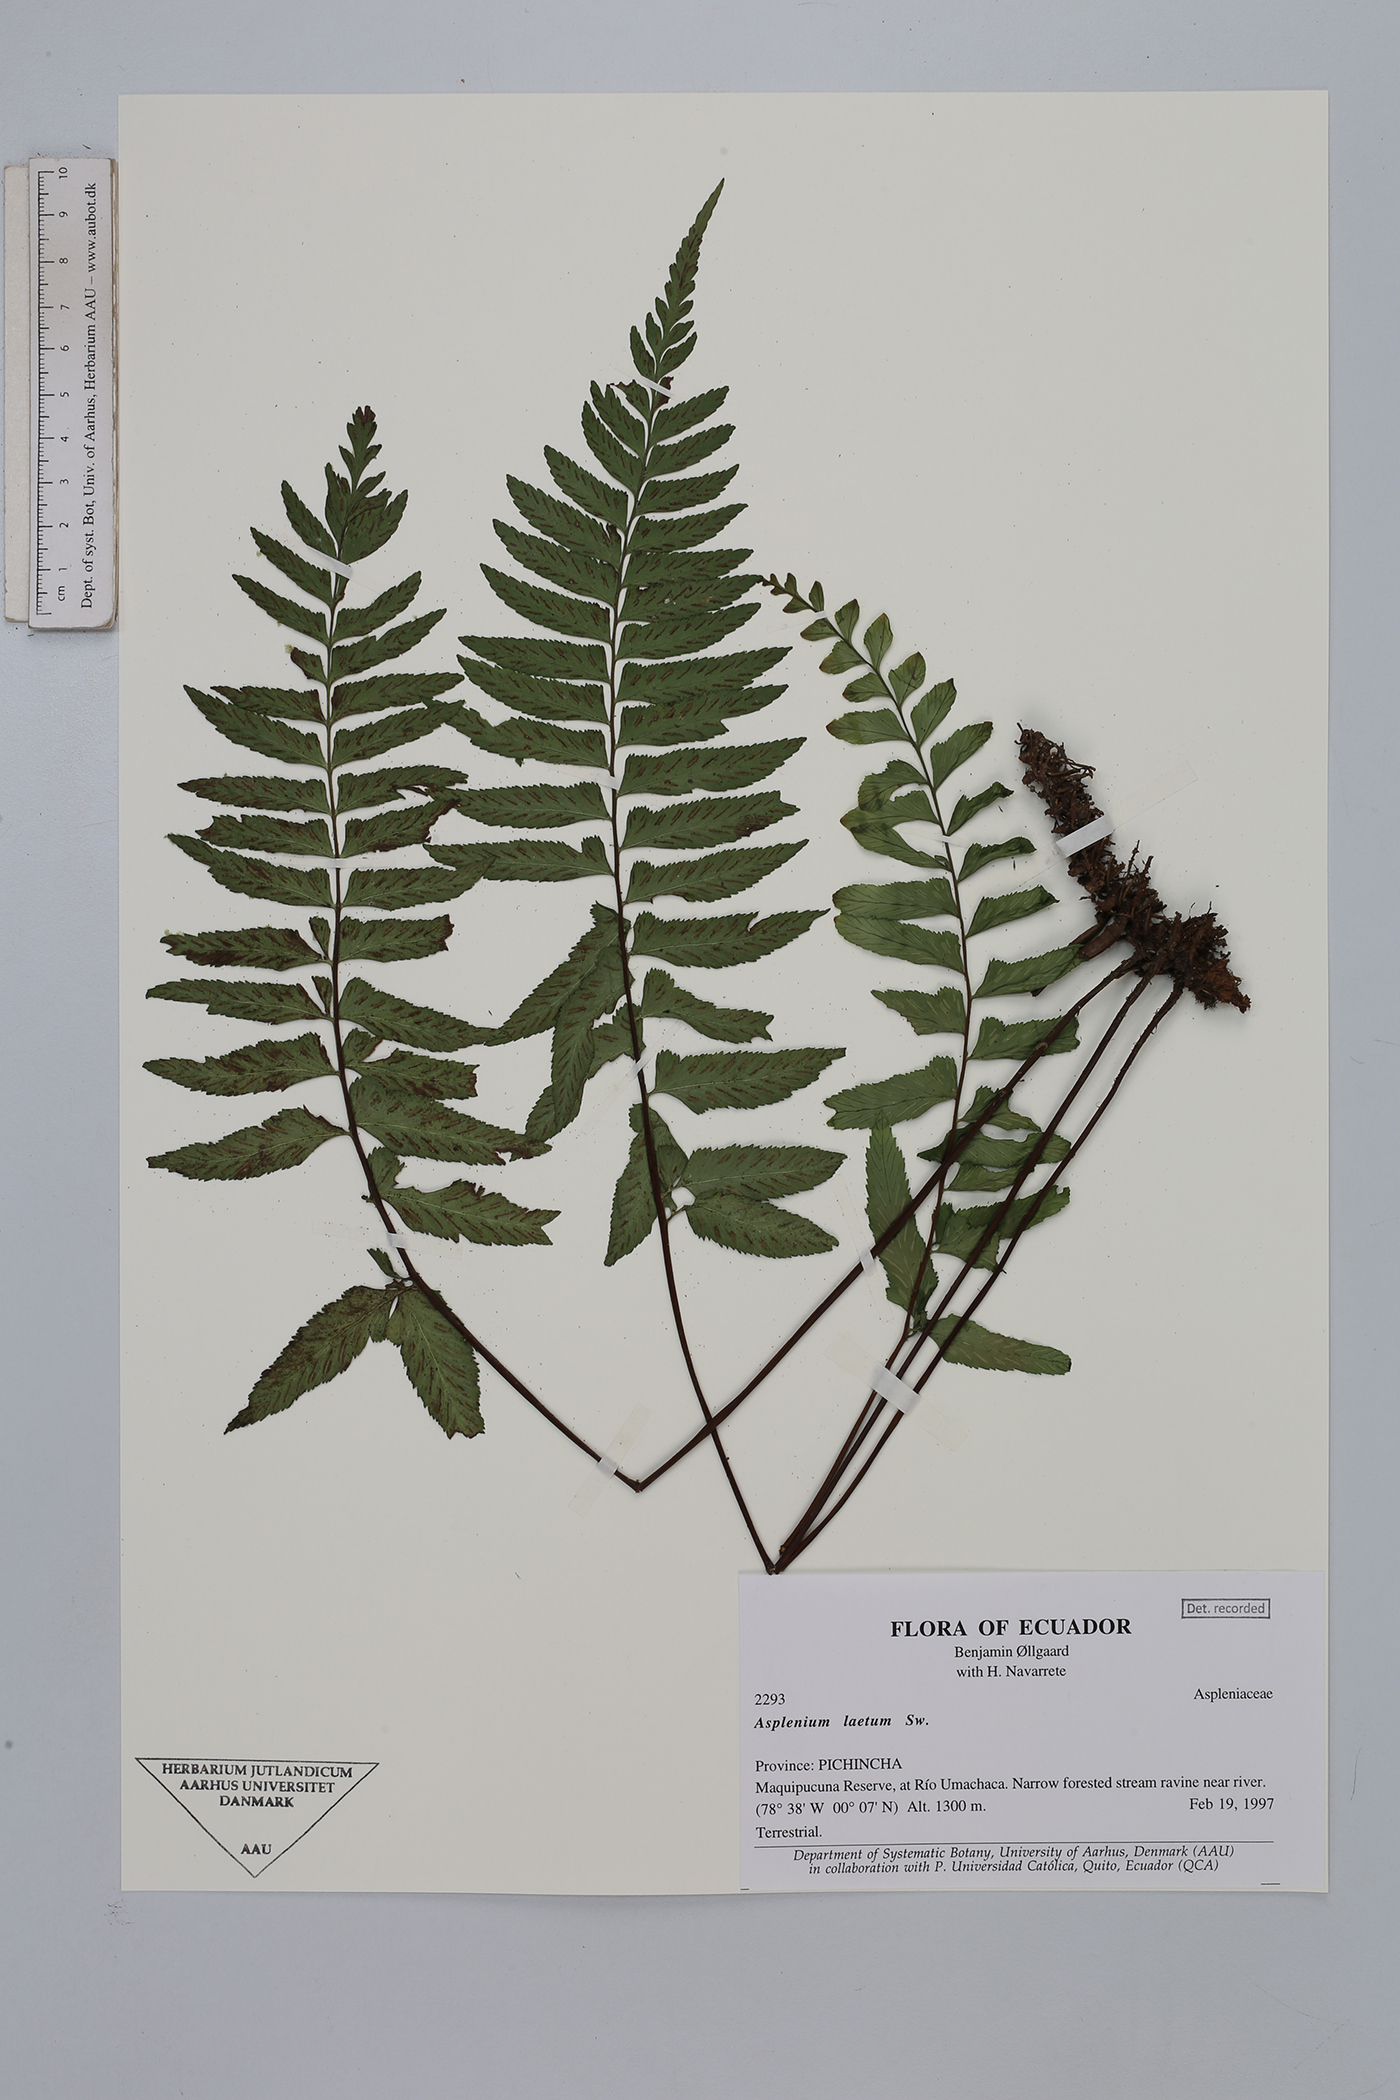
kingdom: Plantae
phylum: Tracheophyta
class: Polypodiopsida
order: Polypodiales
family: Aspleniaceae
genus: Hymenasplenium
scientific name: Hymenasplenium laetum
